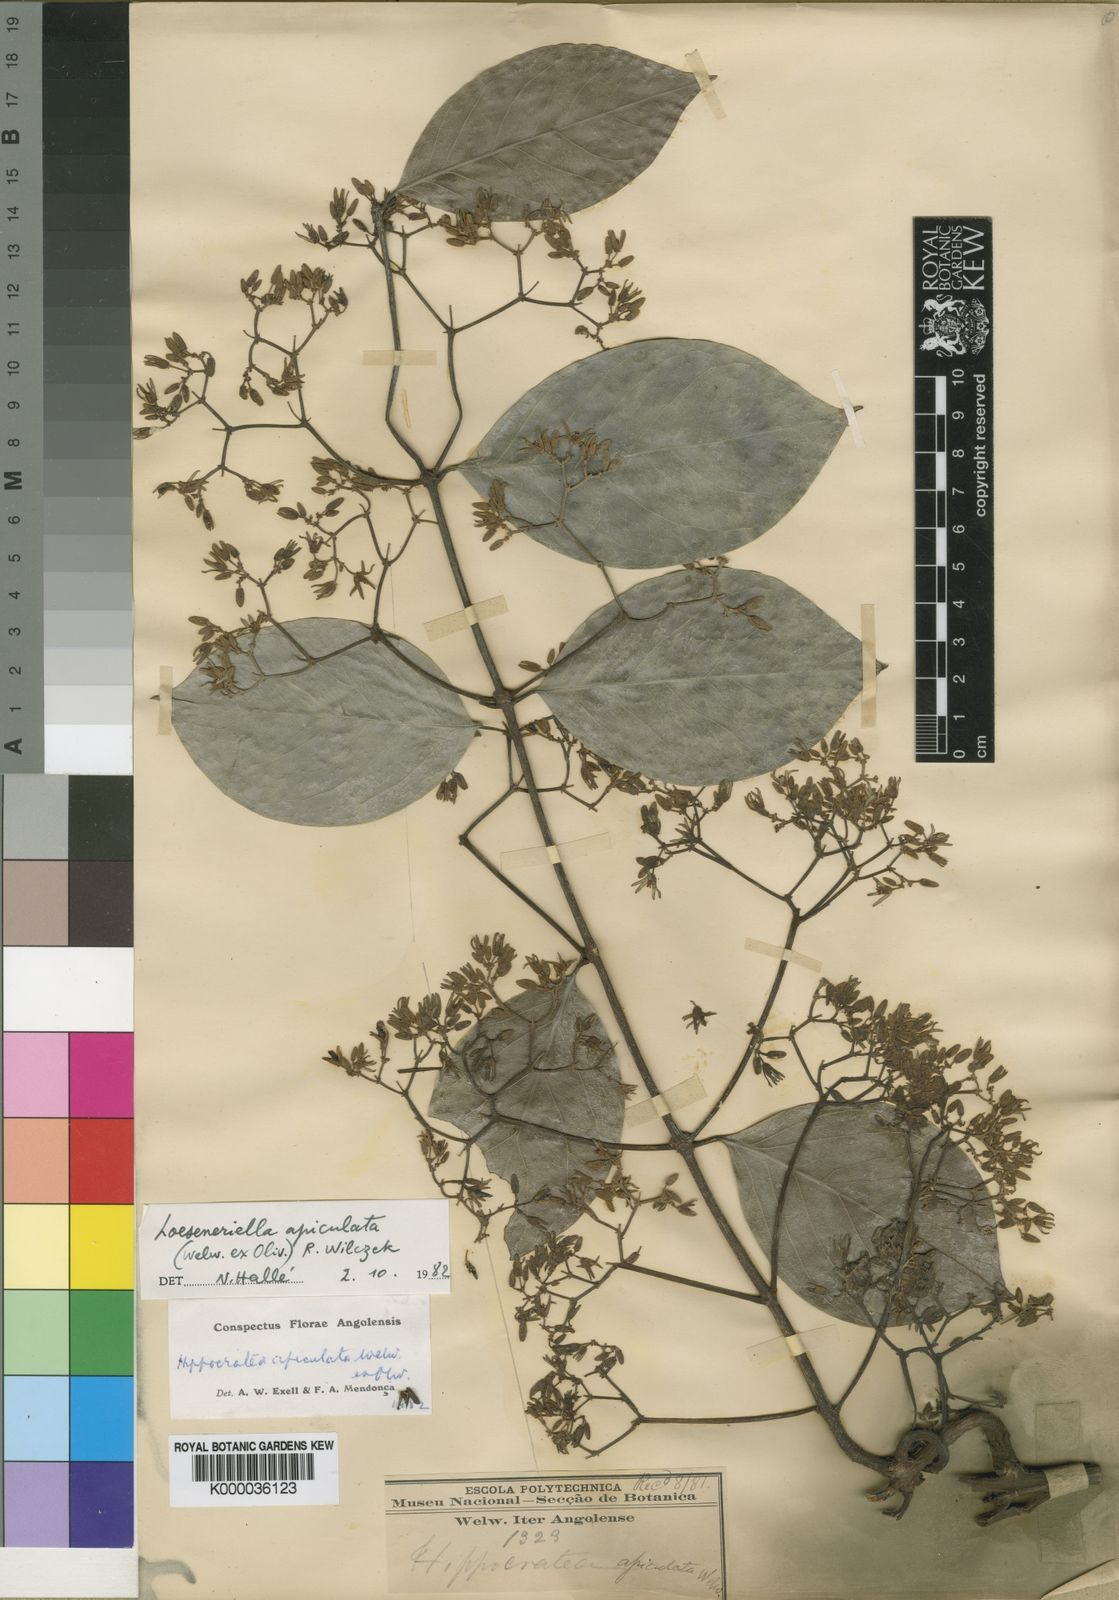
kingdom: Plantae
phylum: Tracheophyta
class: Magnoliopsida
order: Celastrales
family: Celastraceae
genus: Loeseneriella
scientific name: Loeseneriella
